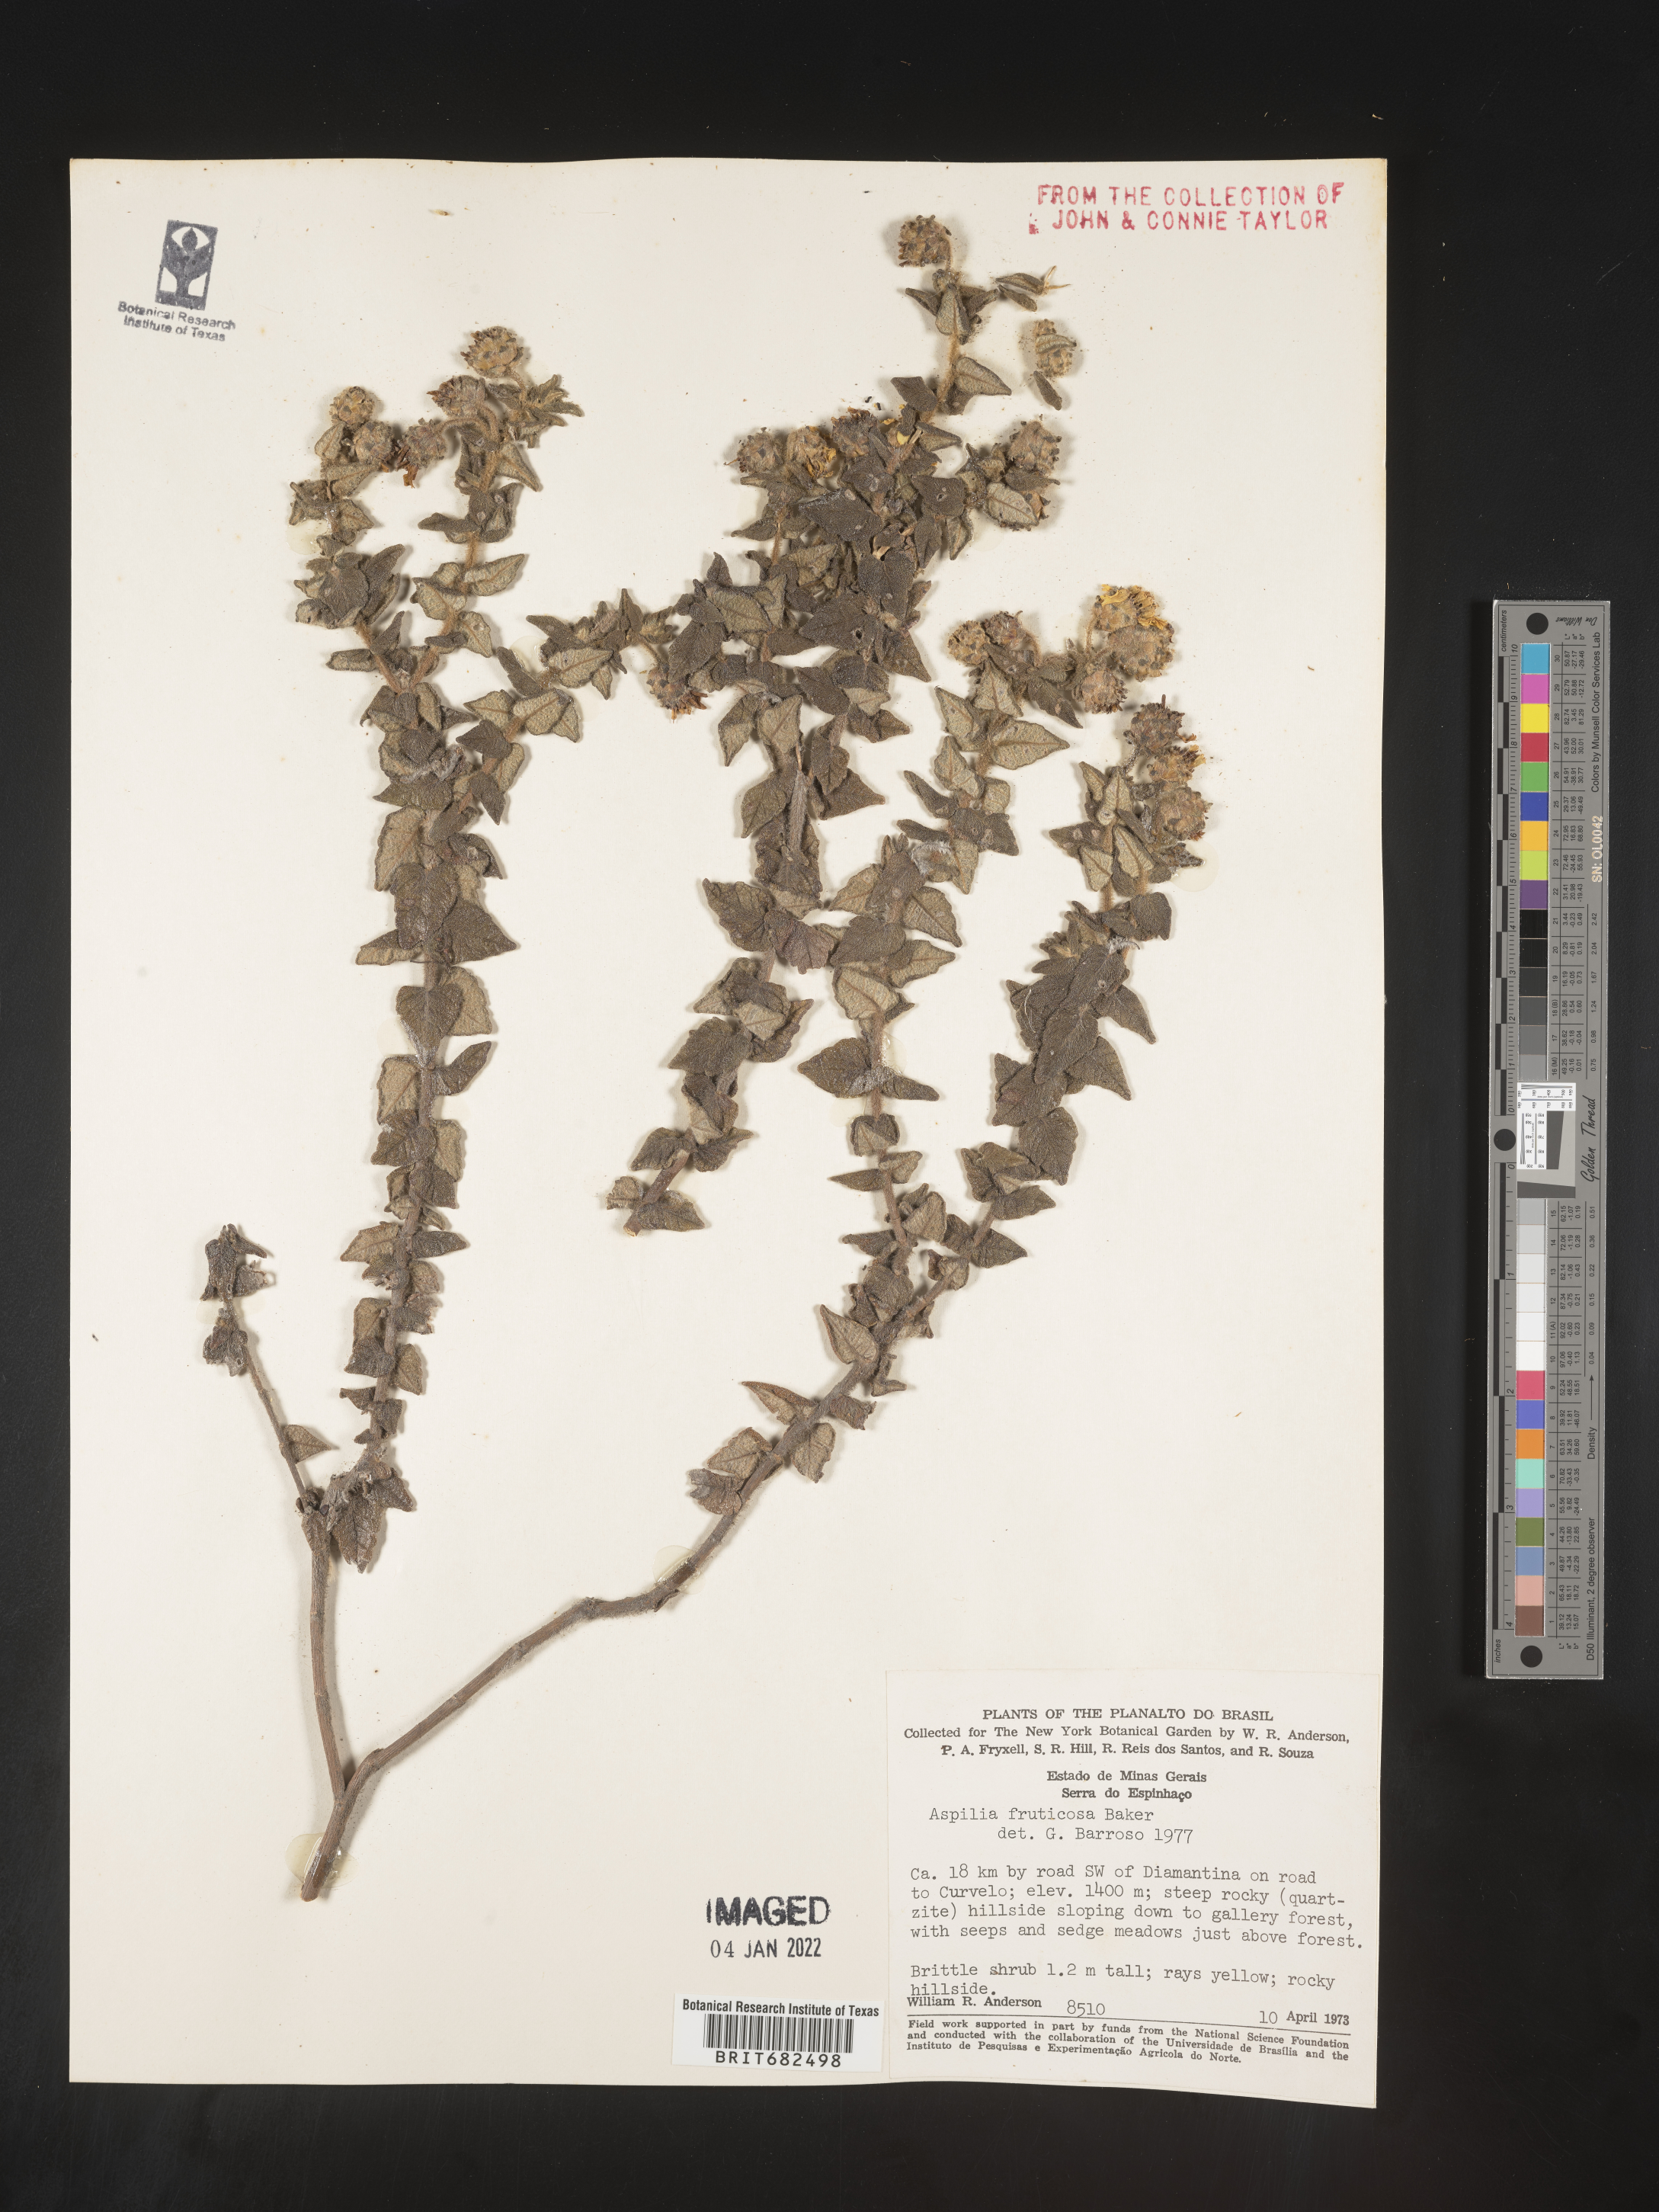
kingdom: Plantae
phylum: Tracheophyta
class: Magnoliopsida
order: Asterales
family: Asteraceae
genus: Aspilia
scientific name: Aspilia
